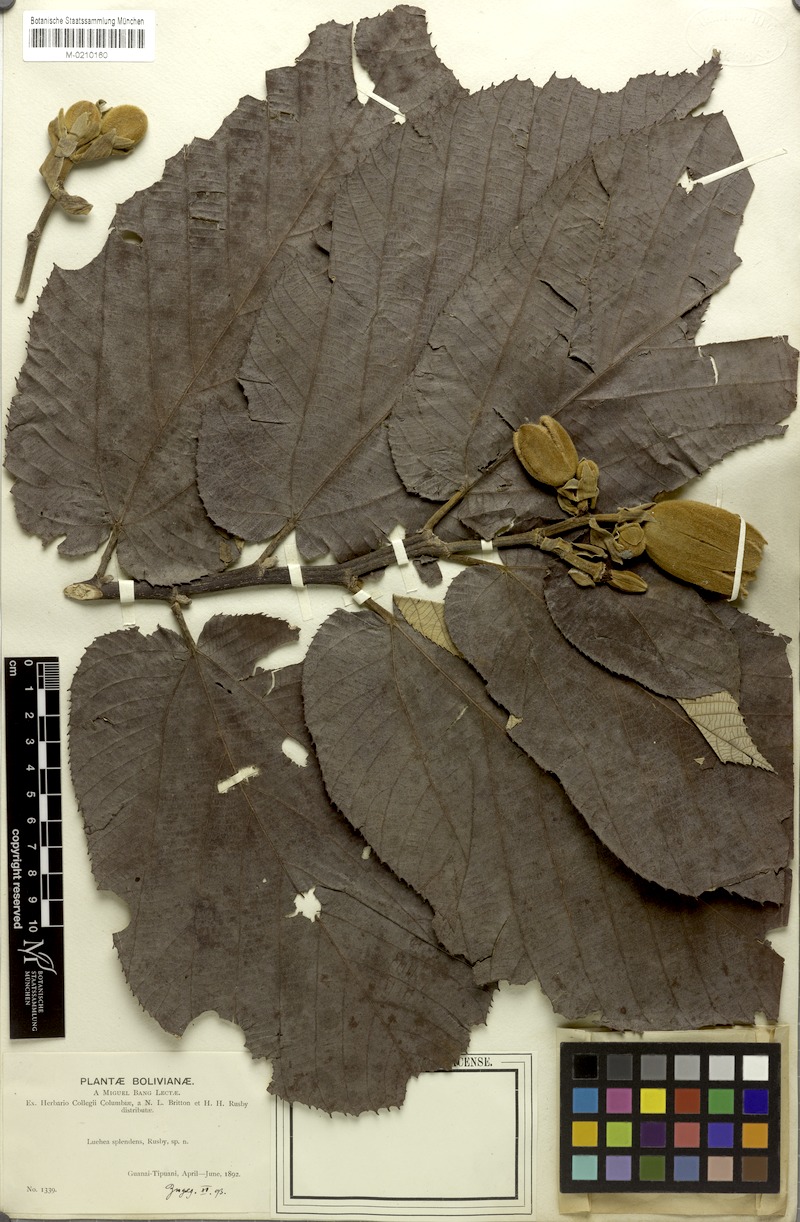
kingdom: Plantae
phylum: Tracheophyta
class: Magnoliopsida
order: Malvales
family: Malvaceae
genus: Luehea
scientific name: Luehea splendens
